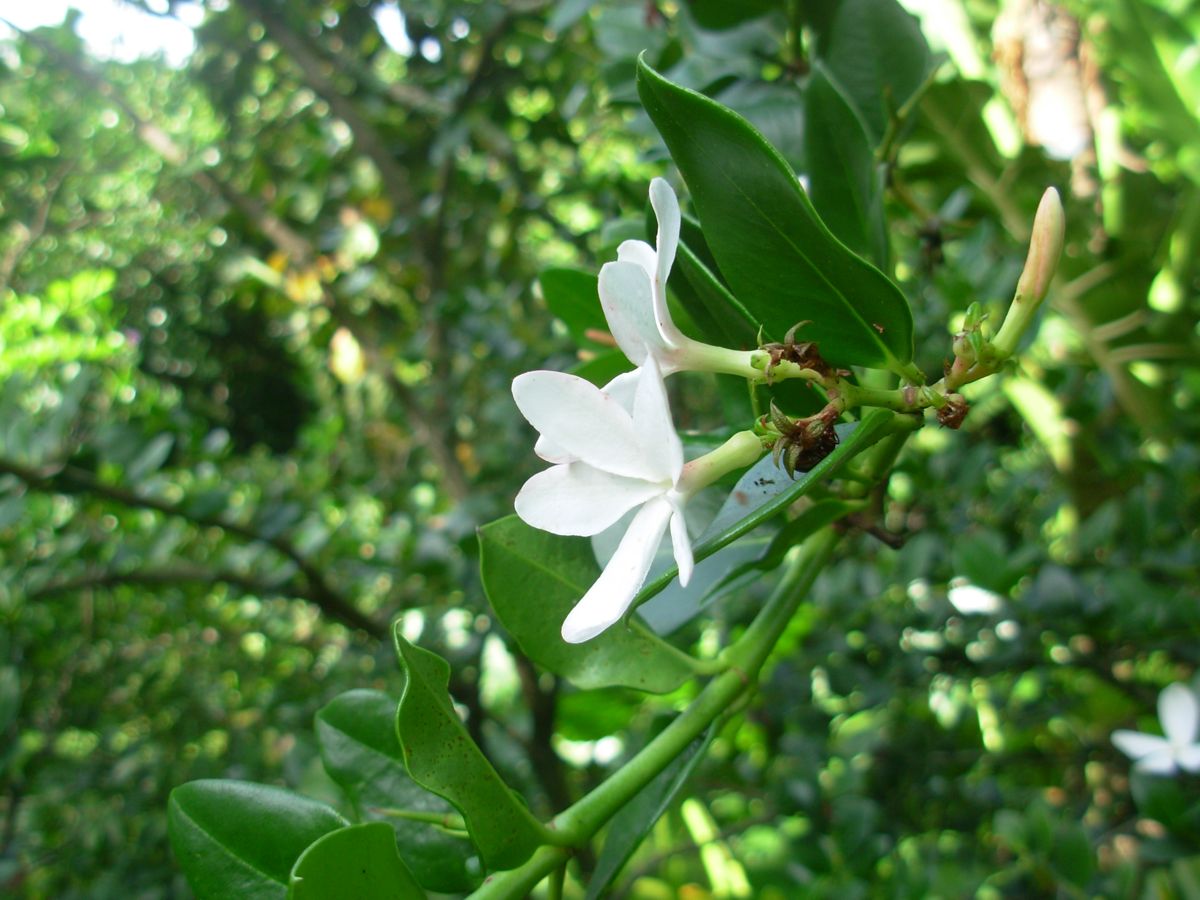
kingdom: Plantae
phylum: Tracheophyta
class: Magnoliopsida
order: Gentianales
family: Apocynaceae
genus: Carissa
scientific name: Carissa macrocarpa
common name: Natal plum
